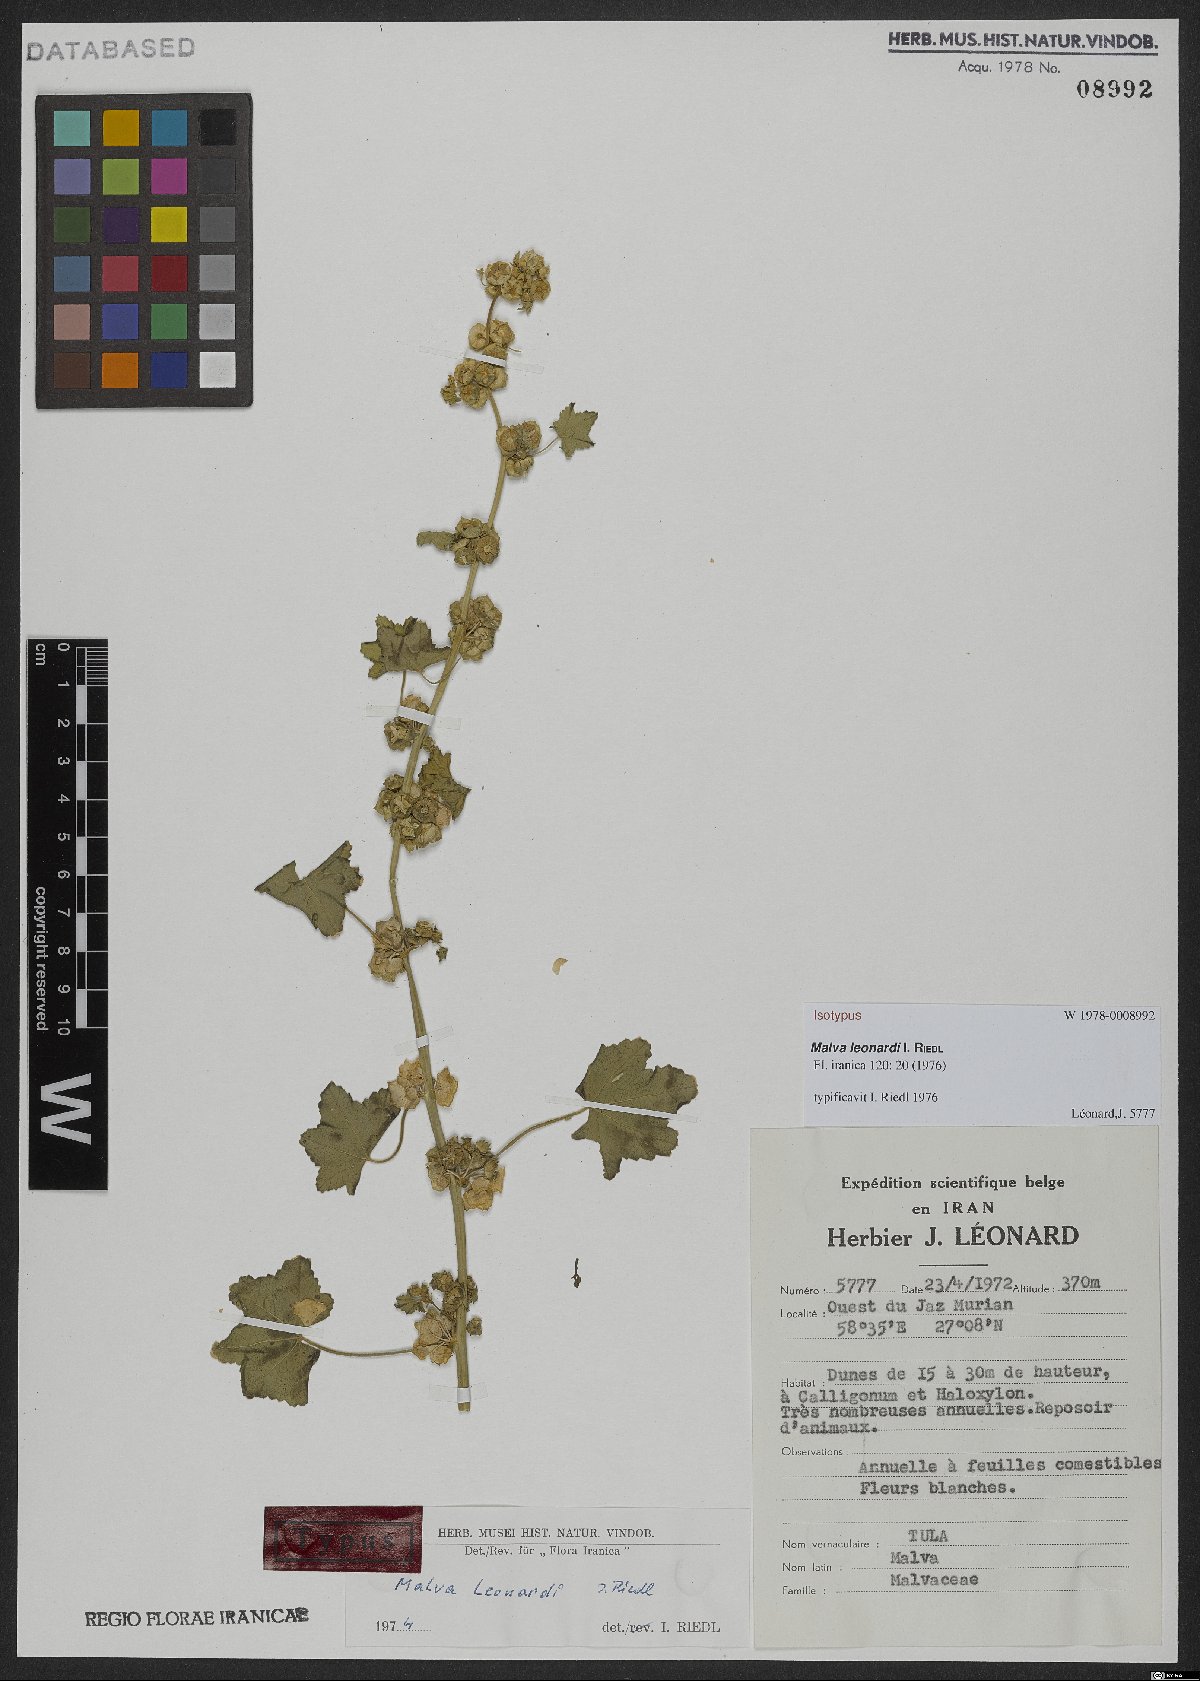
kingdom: Plantae
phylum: Tracheophyta
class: Magnoliopsida
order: Malvales
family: Malvaceae
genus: Malva
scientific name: Malva leonardii
